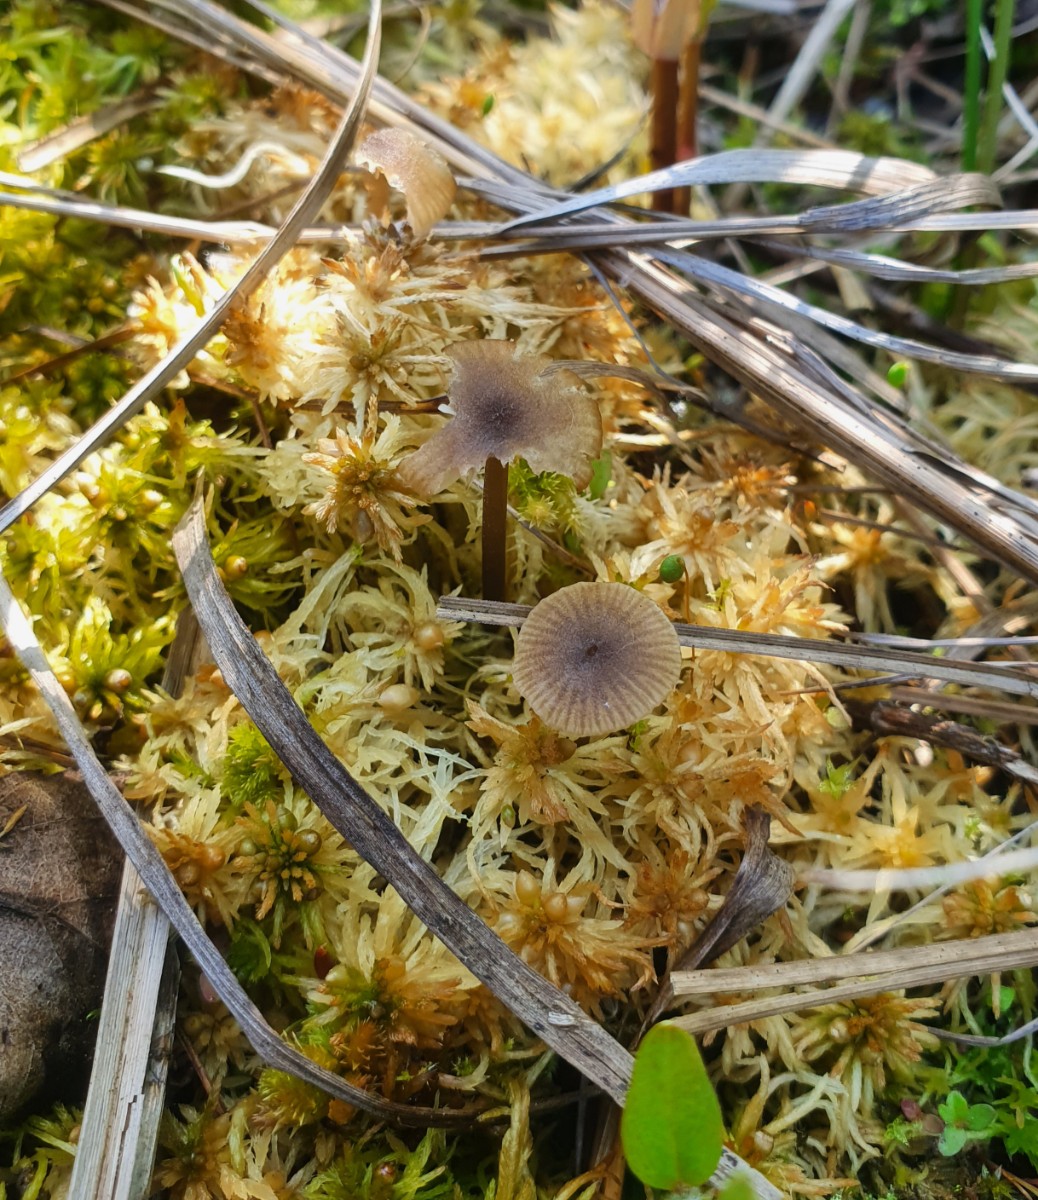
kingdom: Fungi
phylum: Basidiomycota
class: Agaricomycetes
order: Agaricales
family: Lyophyllaceae
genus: Sphagnurus
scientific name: Sphagnurus paluster
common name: tørvemos-gråblad
